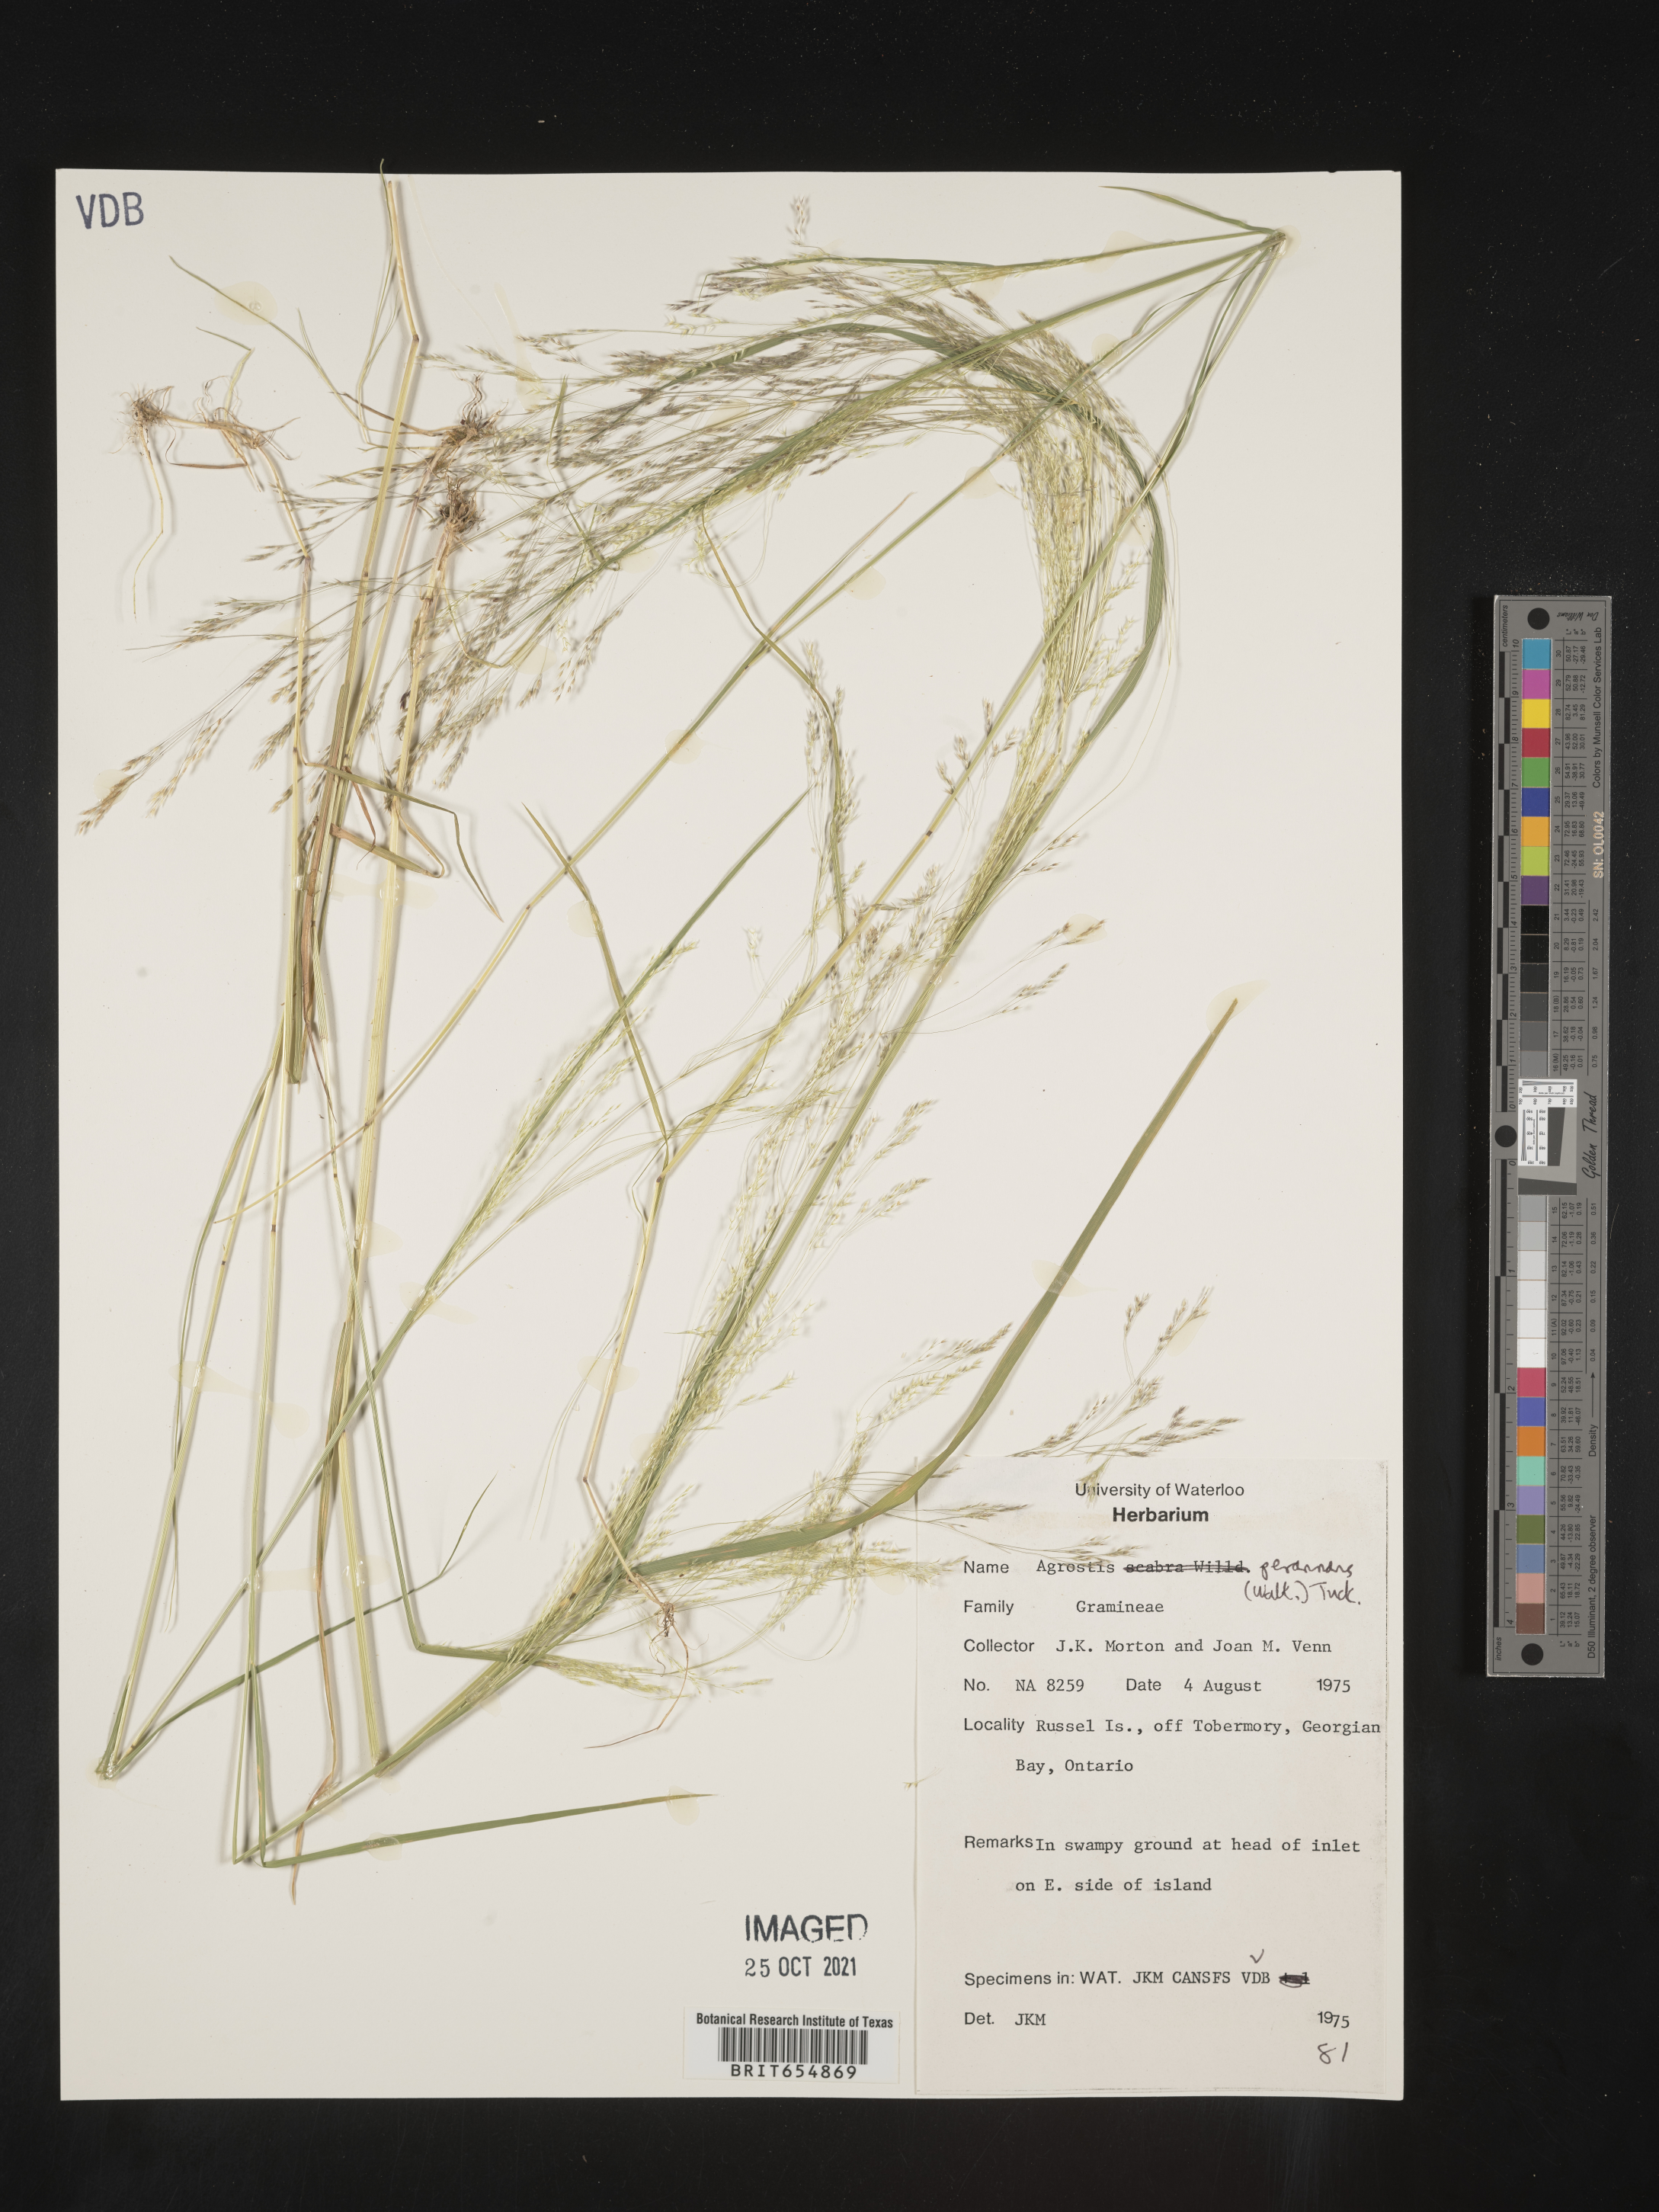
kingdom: Plantae
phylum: Tracheophyta
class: Liliopsida
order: Poales
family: Poaceae
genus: Agrostis
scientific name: Agrostis
